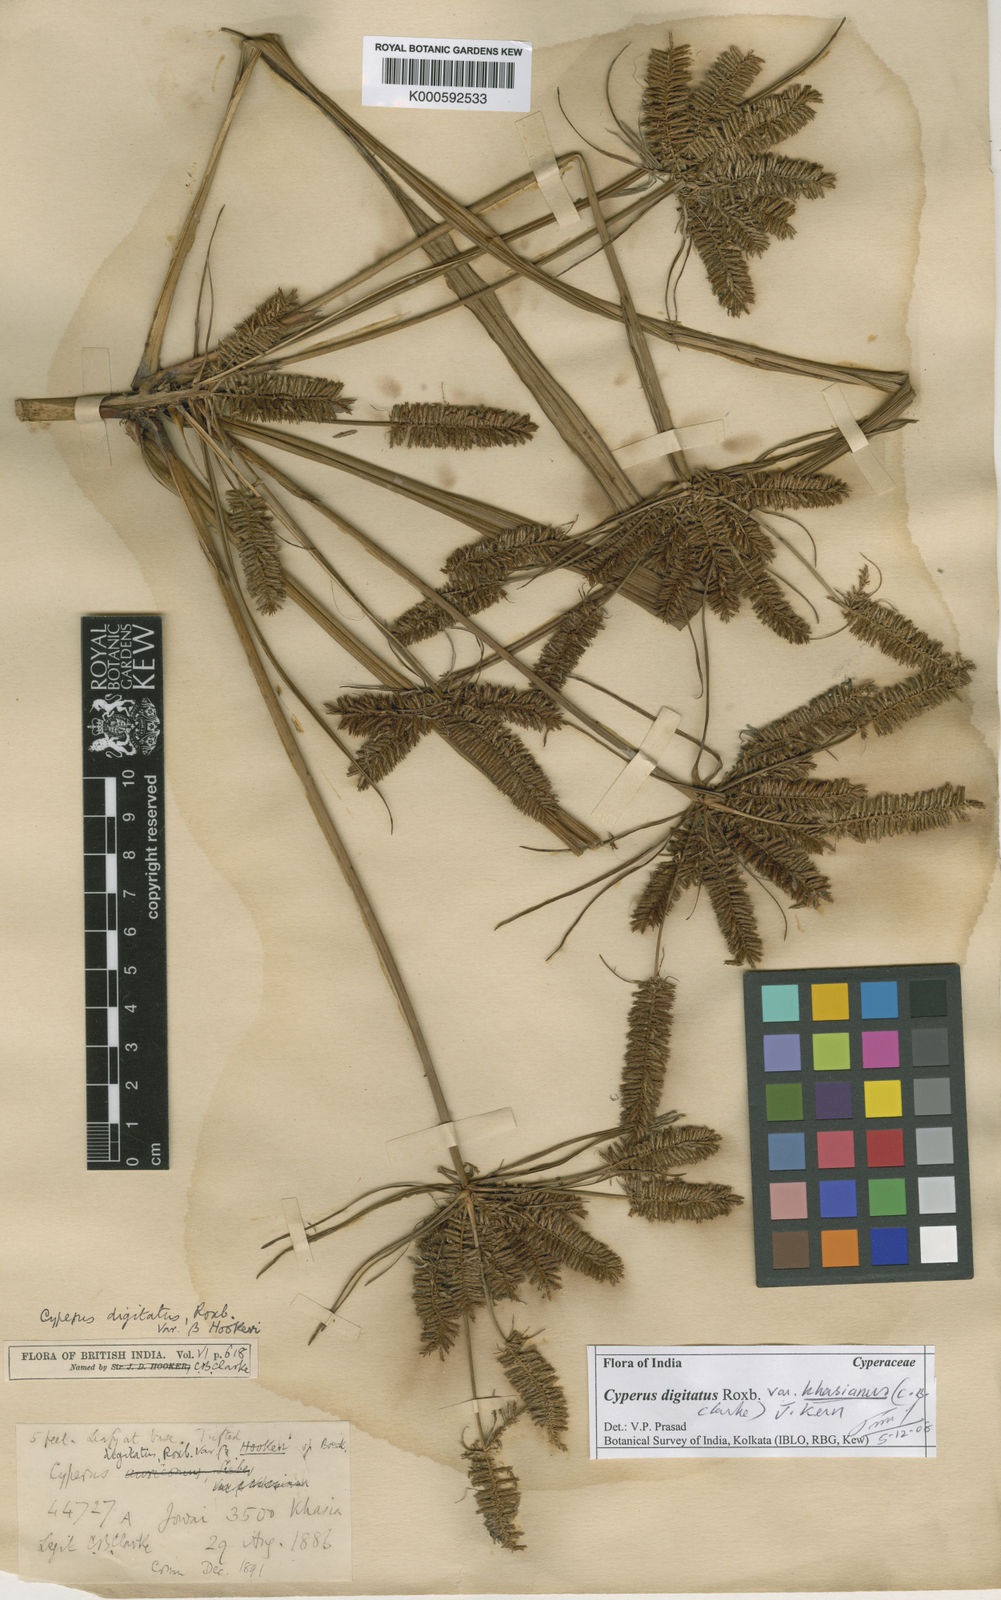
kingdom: Plantae
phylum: Tracheophyta
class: Liliopsida
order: Poales
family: Cyperaceae
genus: Cyperus
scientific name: Cyperus digitatus
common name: Finger flatsedge
